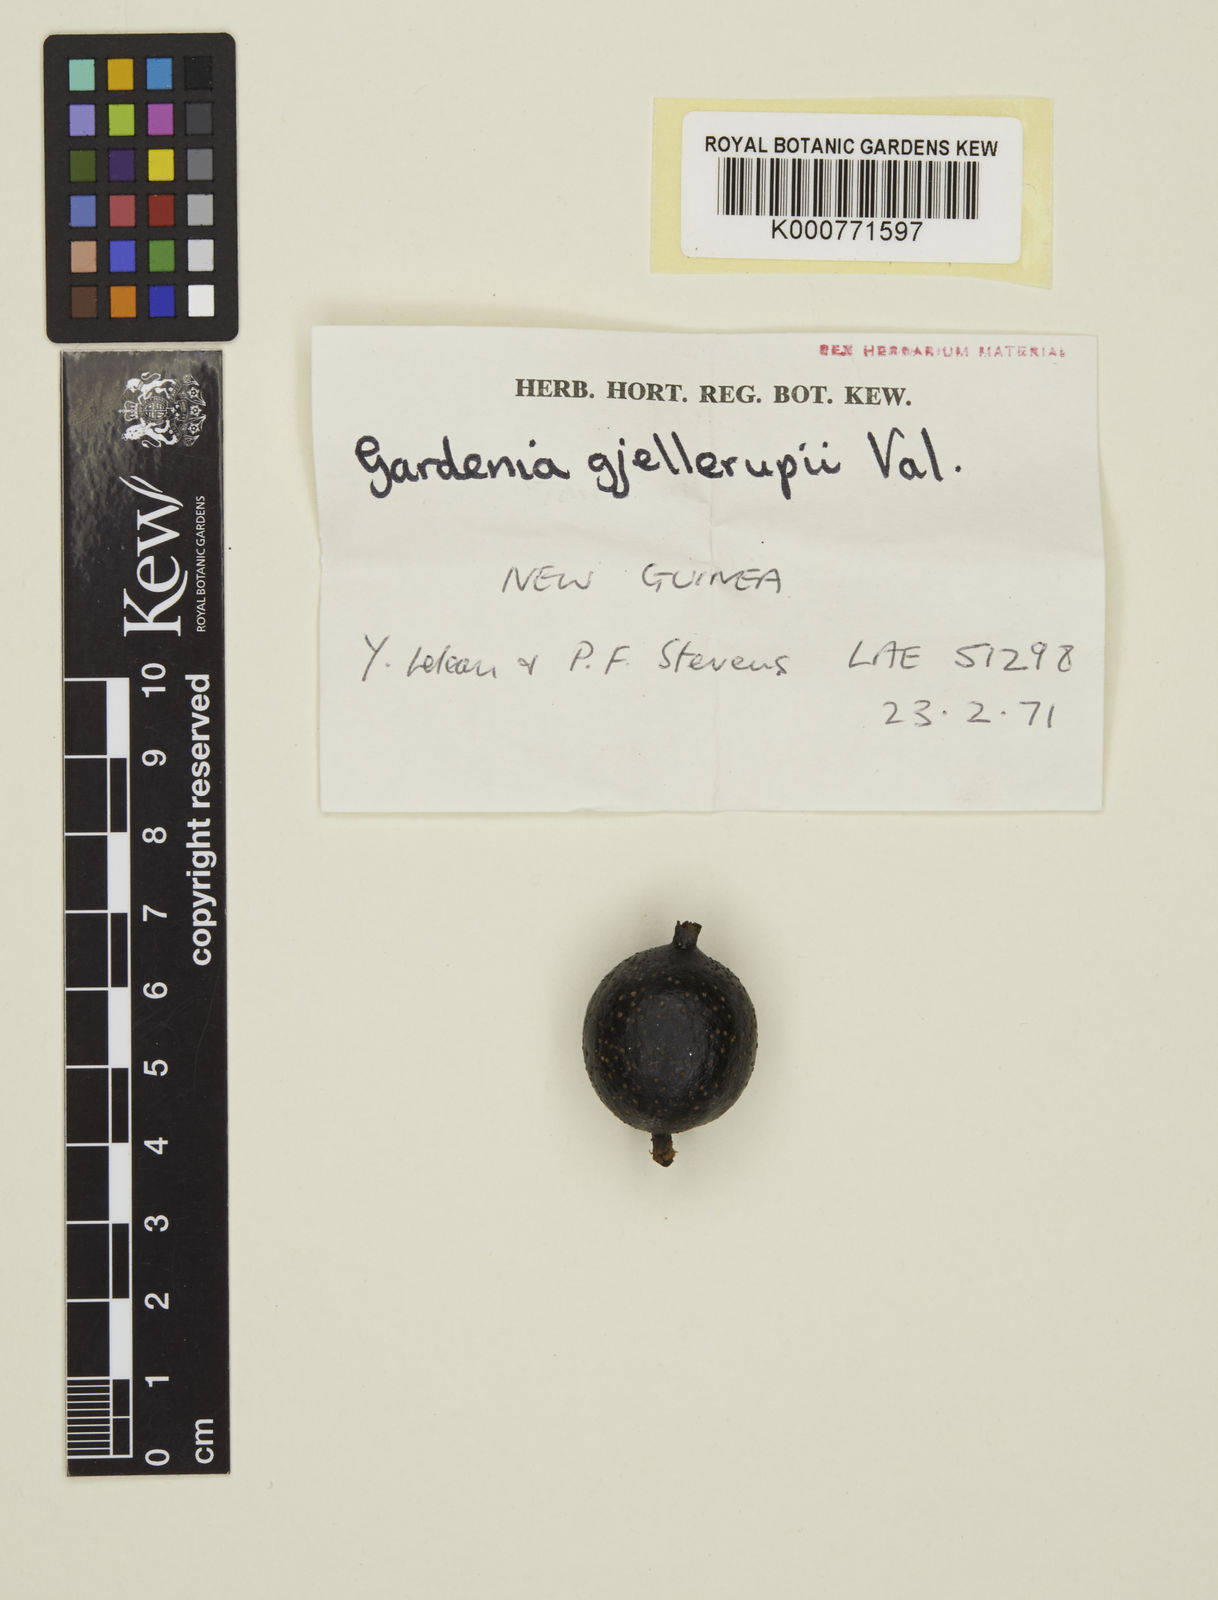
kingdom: Plantae
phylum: Tracheophyta
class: Magnoliopsida
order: Gentianales
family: Rubiaceae
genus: Gardenia
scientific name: Gardenia gjellerupii
